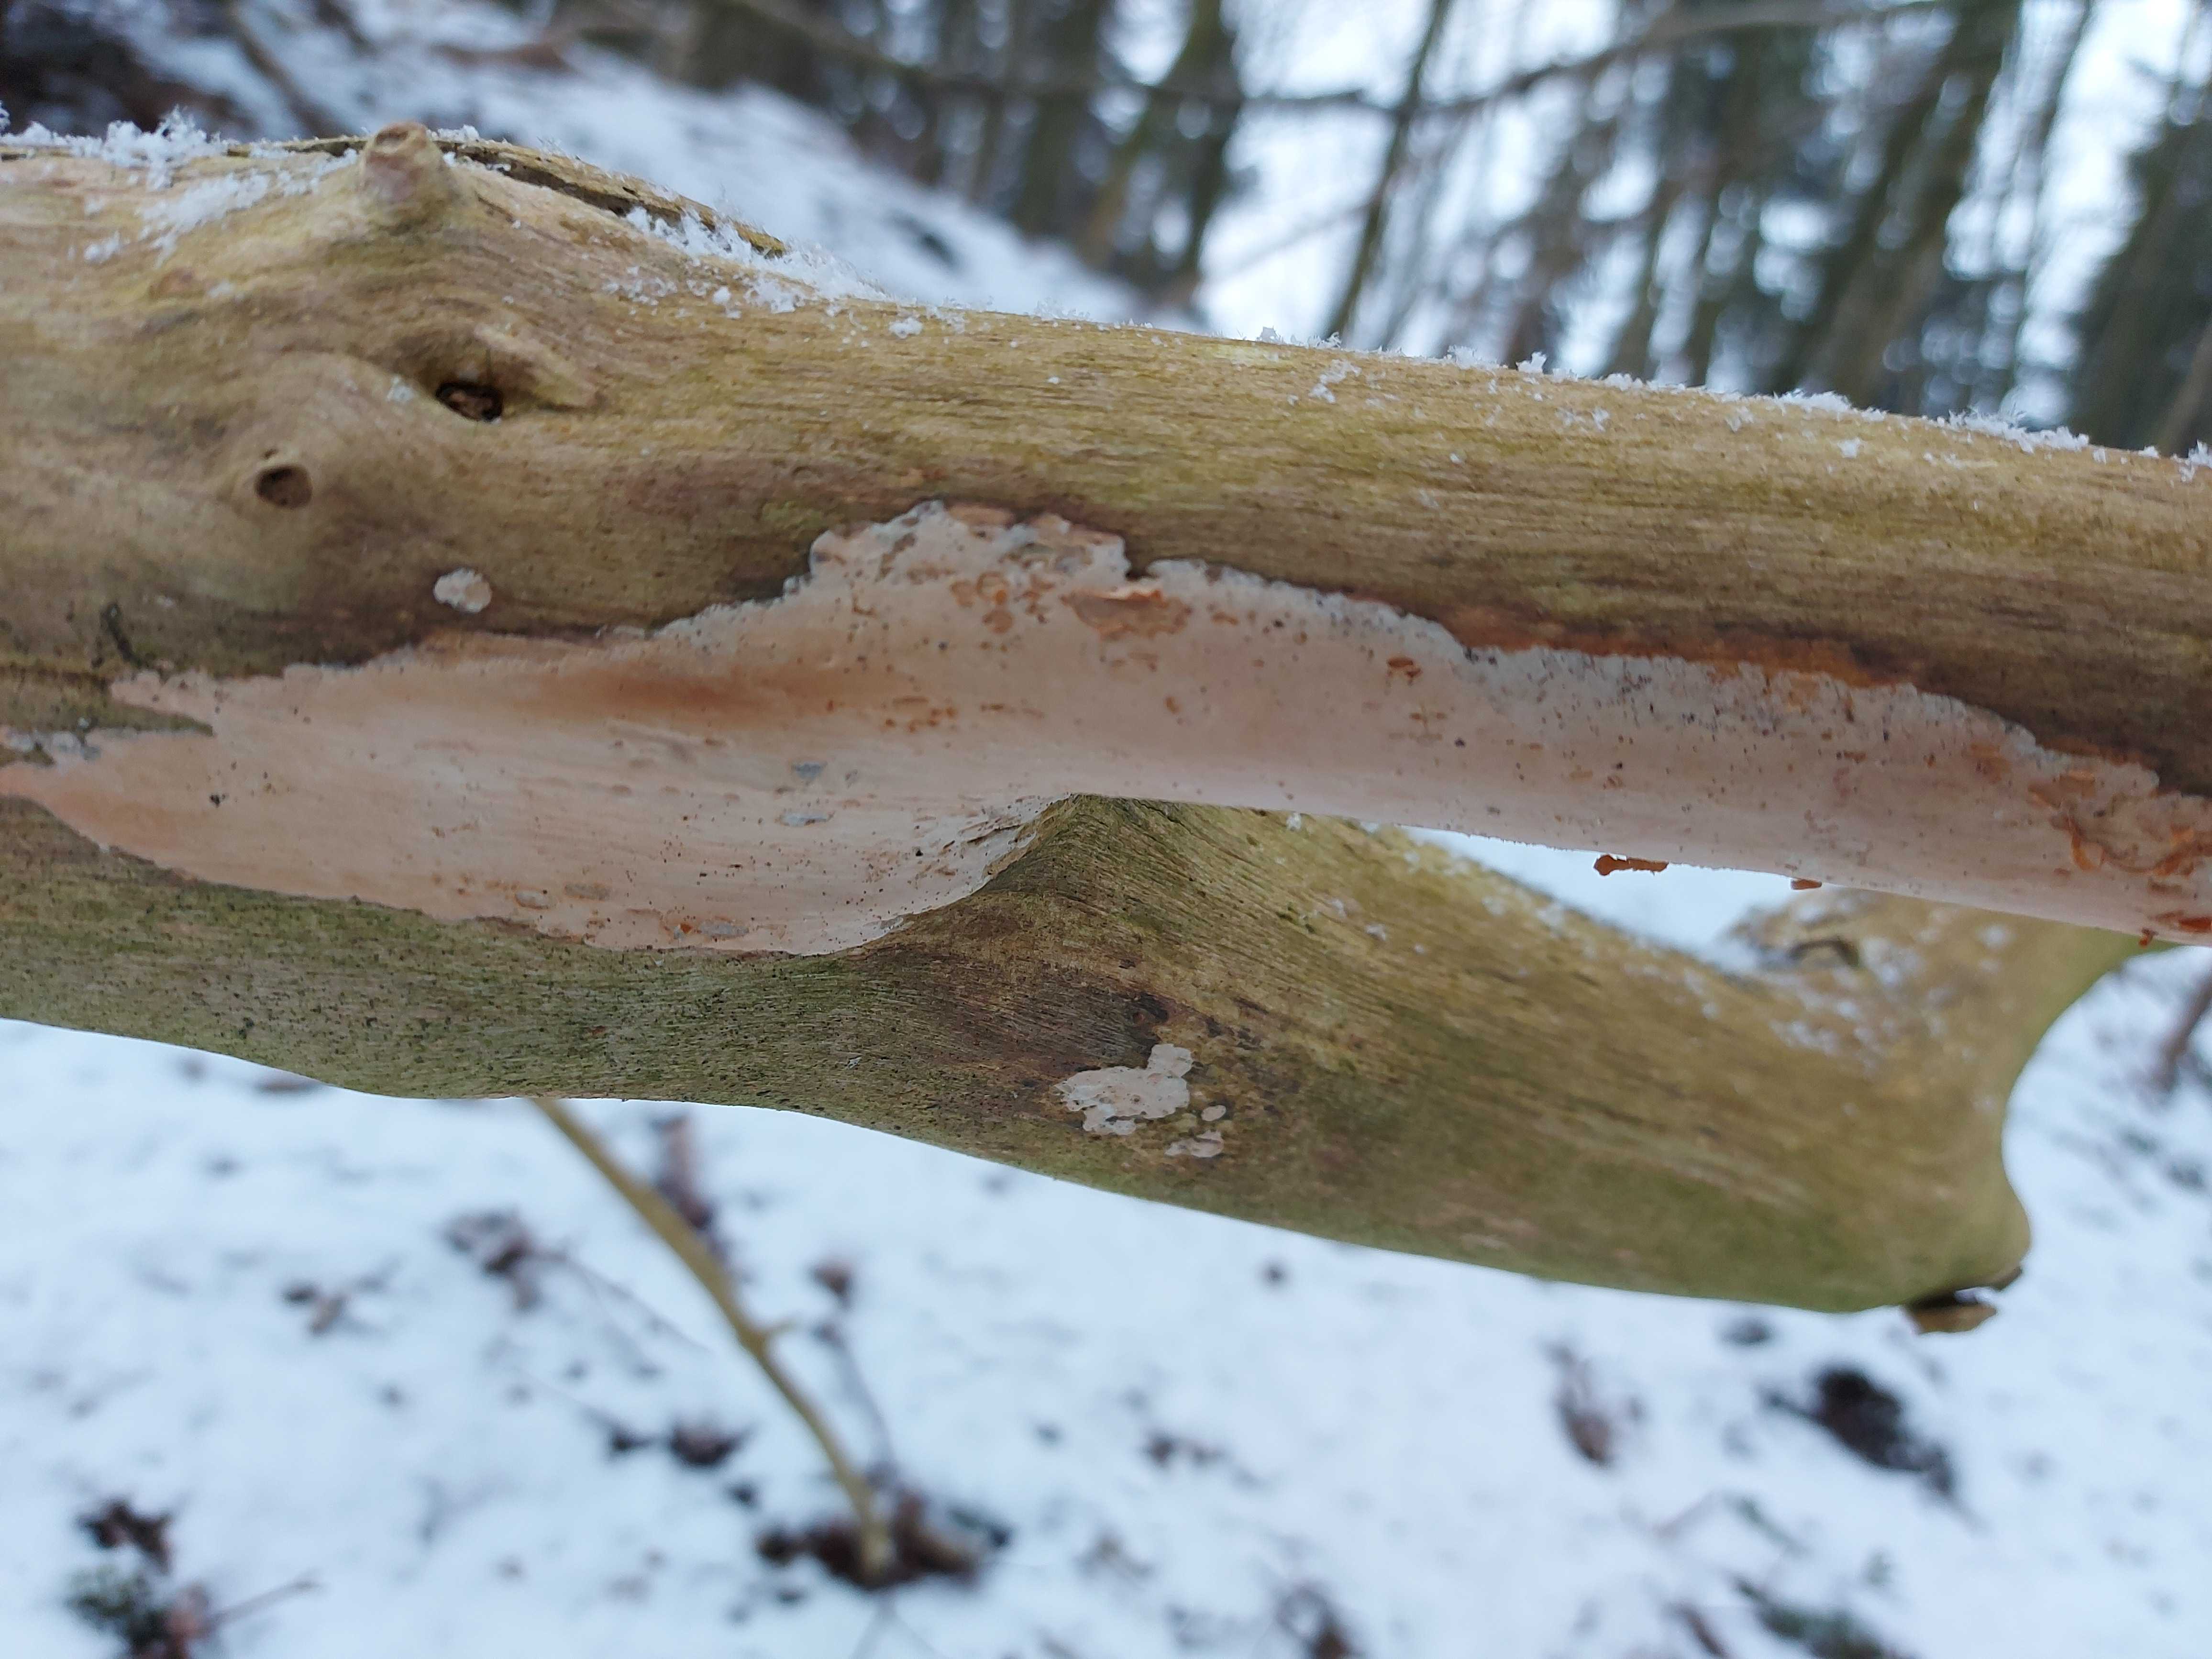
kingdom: Fungi
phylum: Basidiomycota
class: Agaricomycetes
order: Corticiales
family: Corticiaceae
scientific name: Corticiaceae
